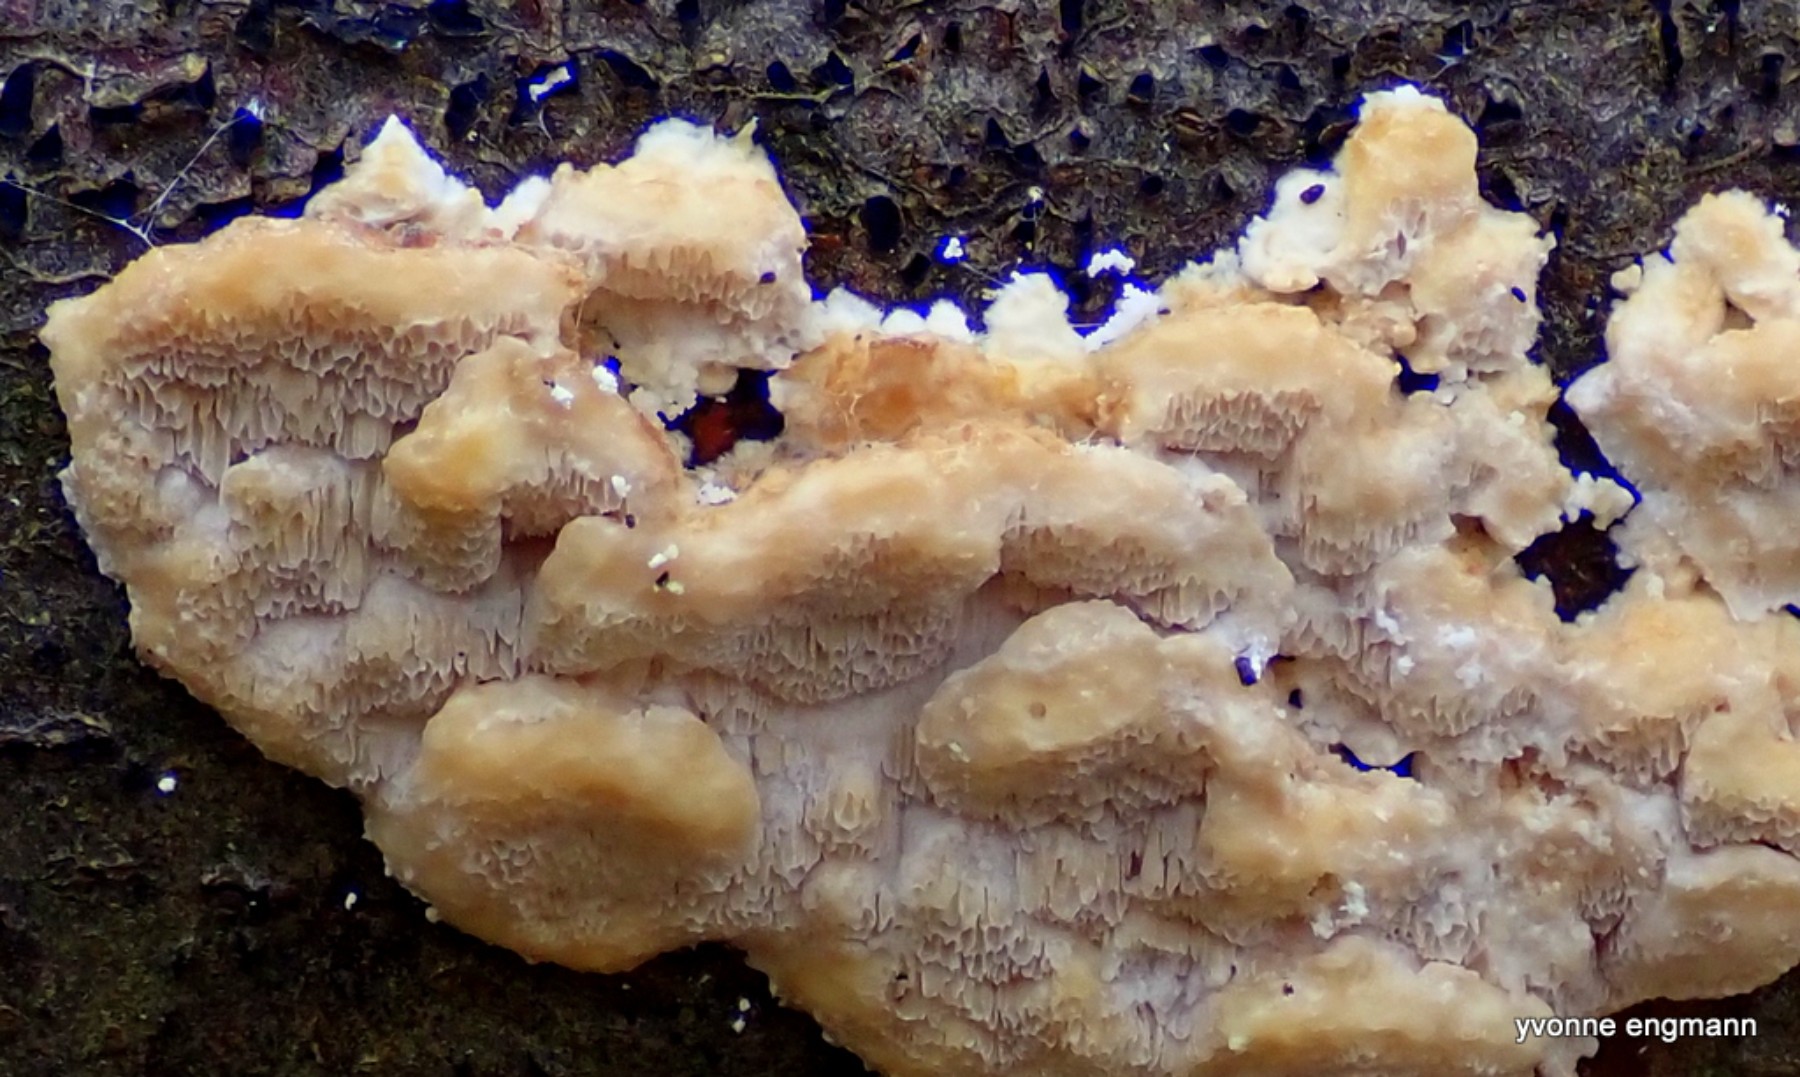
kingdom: Fungi
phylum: Basidiomycota
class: Agaricomycetes
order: Polyporales
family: Steccherinaceae
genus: Antrodiella
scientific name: Antrodiella serpula
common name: gulrandet elastikporesvamp
